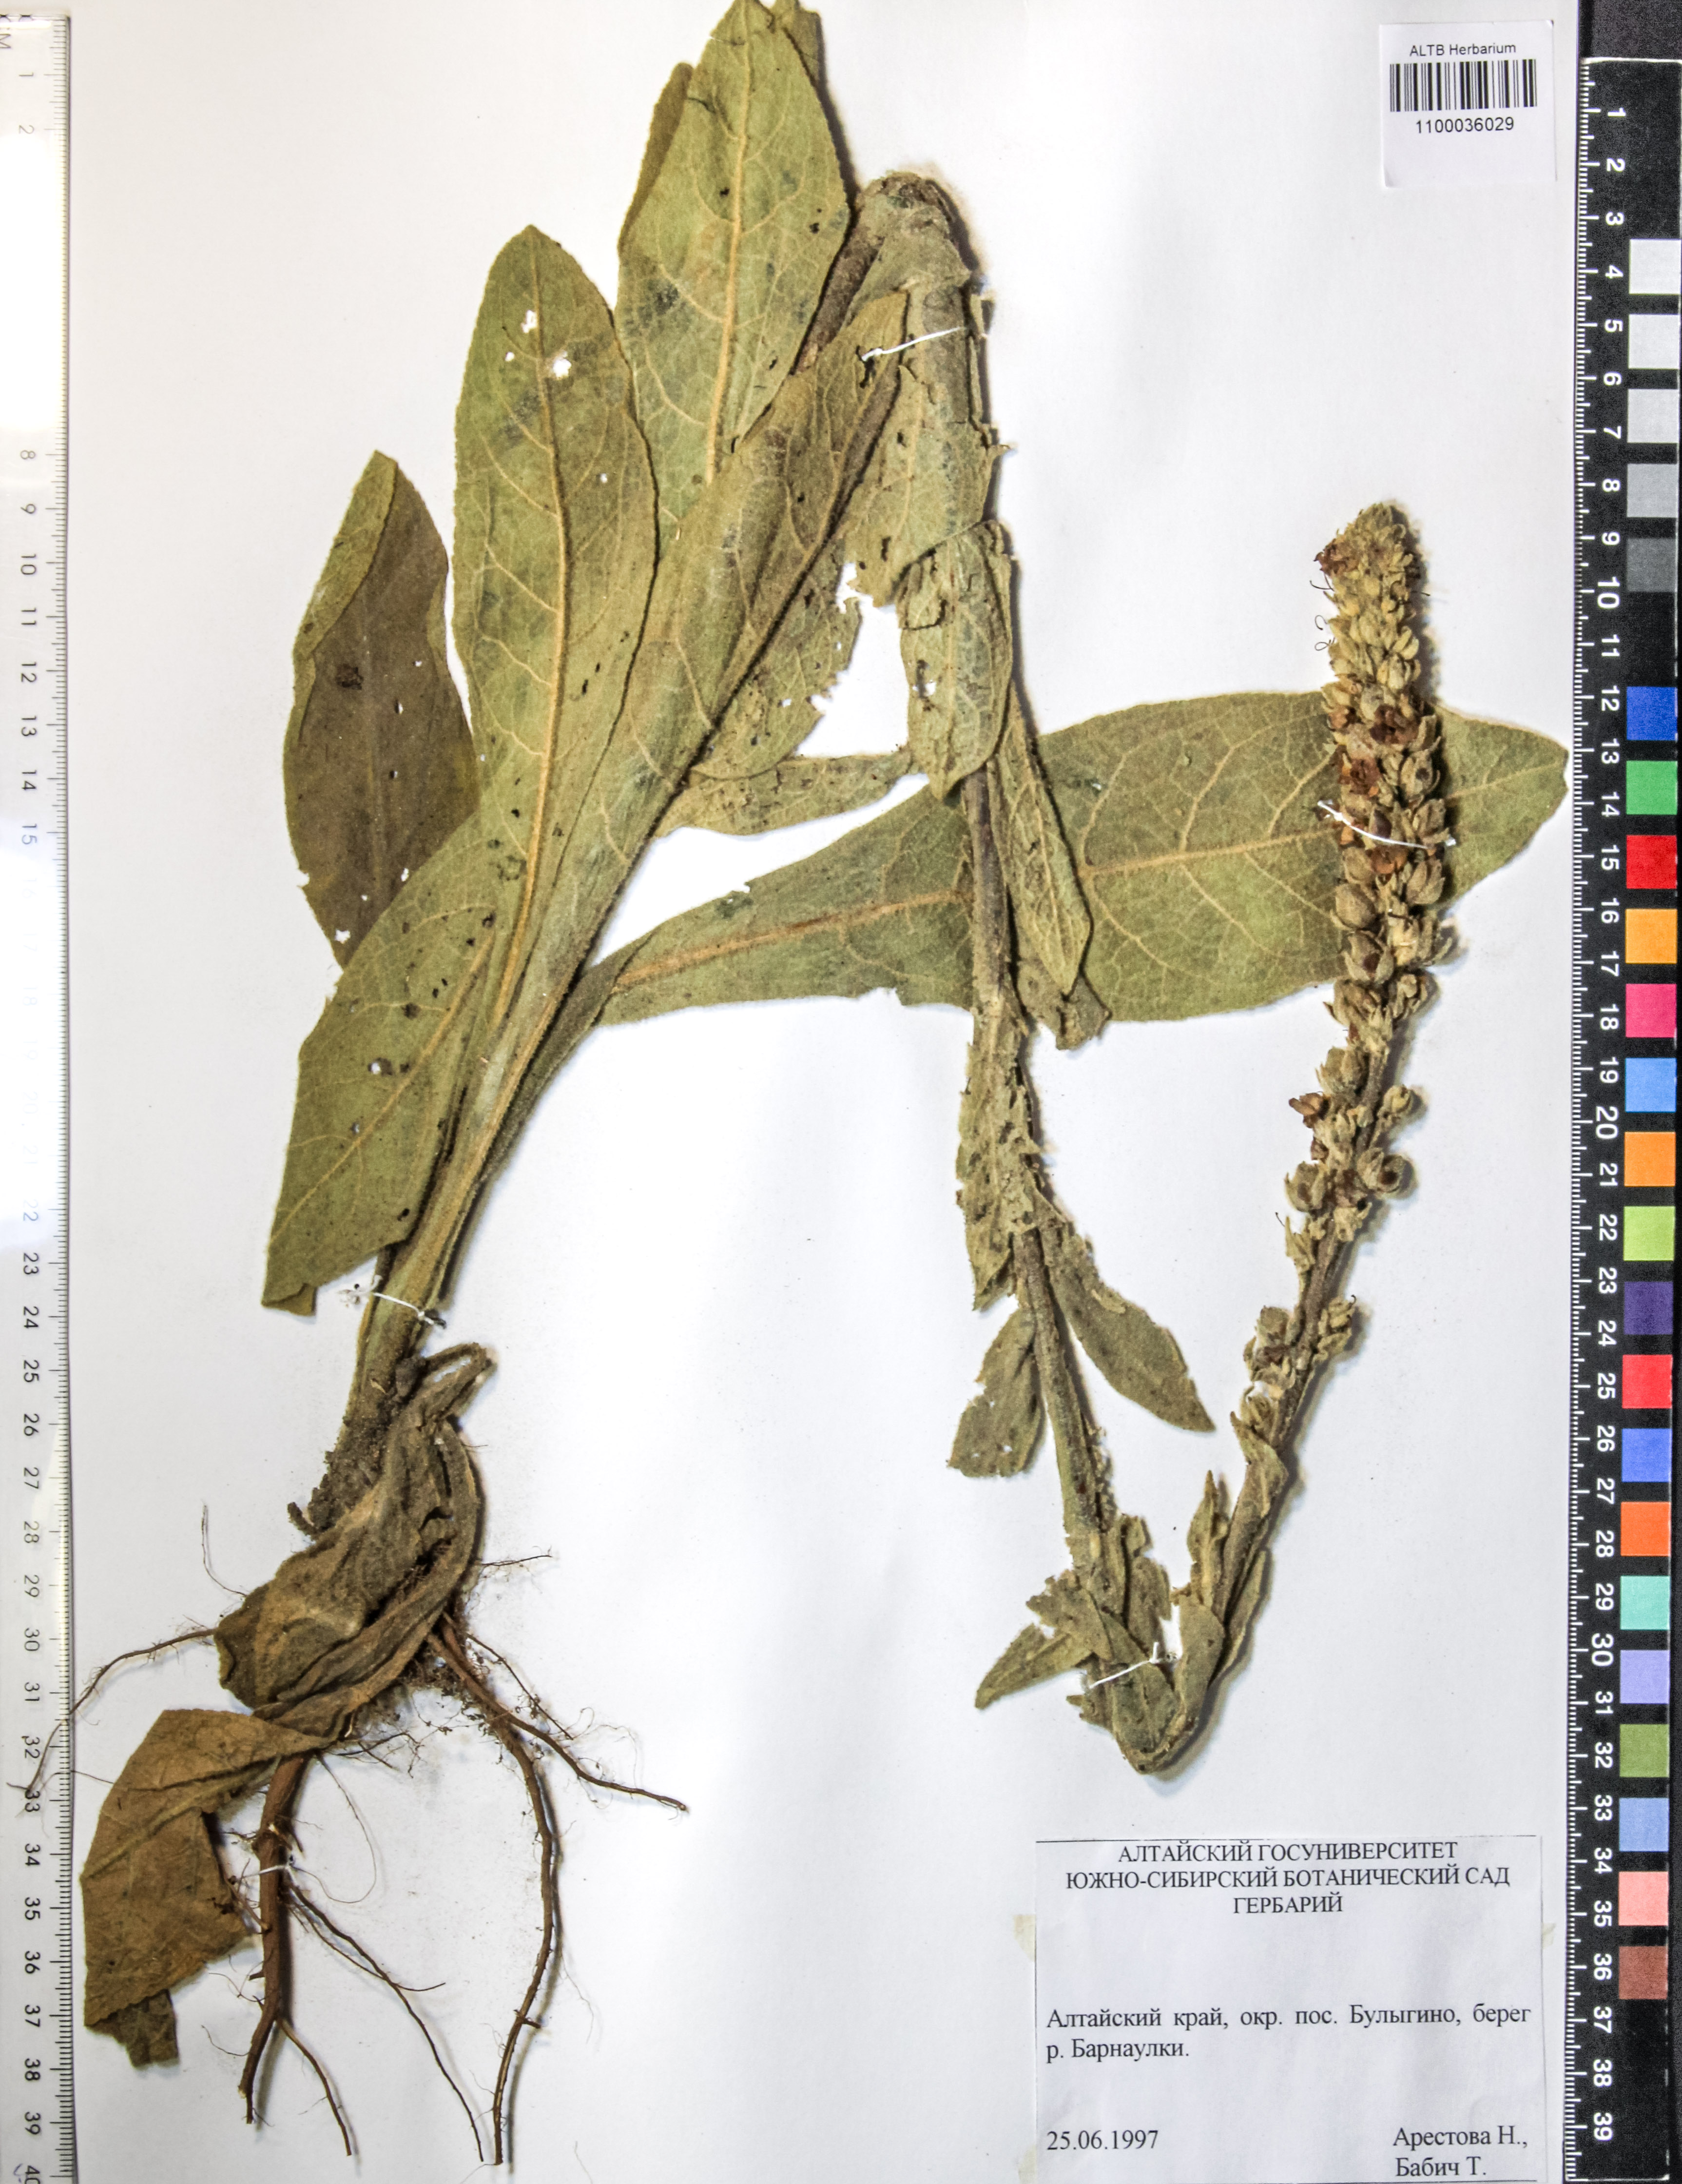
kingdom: Plantae
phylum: Tracheophyta
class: Magnoliopsida
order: Lamiales
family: Scrophulariaceae
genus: Verbascum
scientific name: Verbascum phoeniceum
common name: Purple mullein
